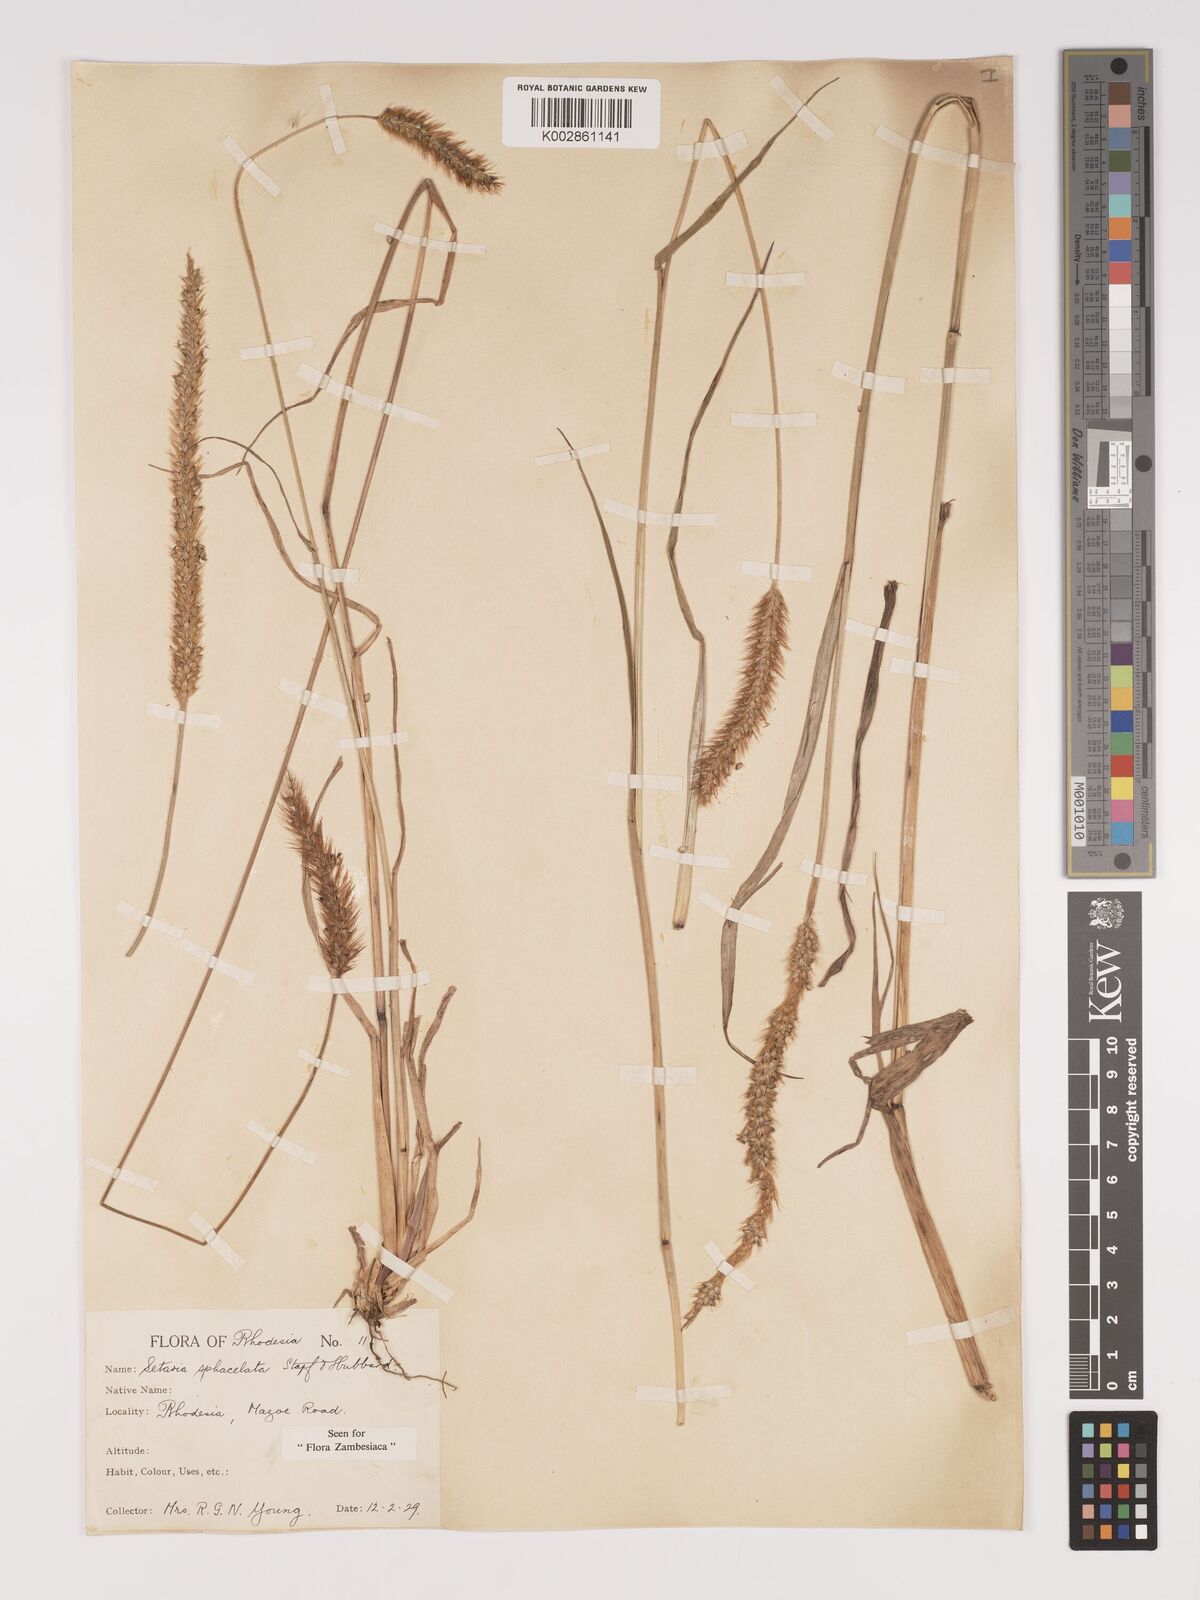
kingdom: Plantae
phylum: Tracheophyta
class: Liliopsida
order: Poales
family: Poaceae
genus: Setaria
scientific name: Setaria sphacelata
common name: African bristlegrass
